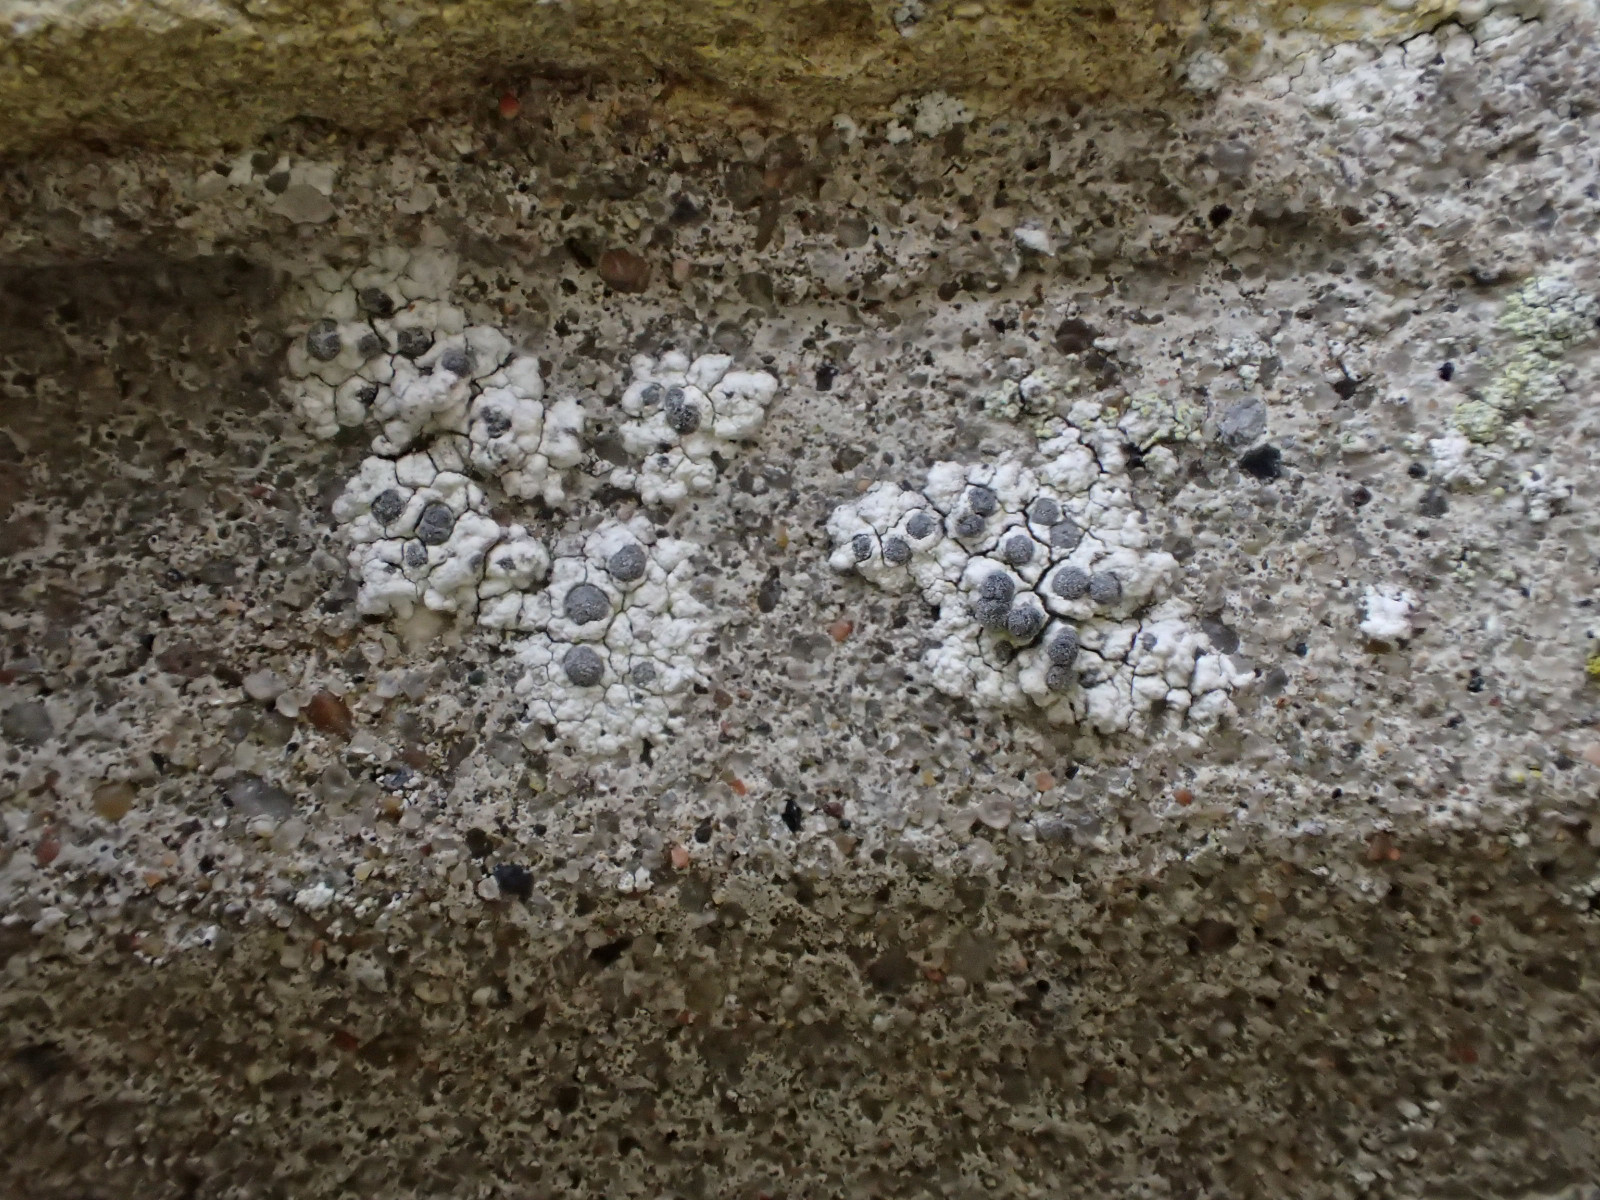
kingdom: Fungi
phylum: Ascomycota
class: Lecanoromycetes
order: Caliciales
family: Caliciaceae
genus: Diplotomma
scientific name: Diplotomma alboatrum
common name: sorthvid sortskivelav
